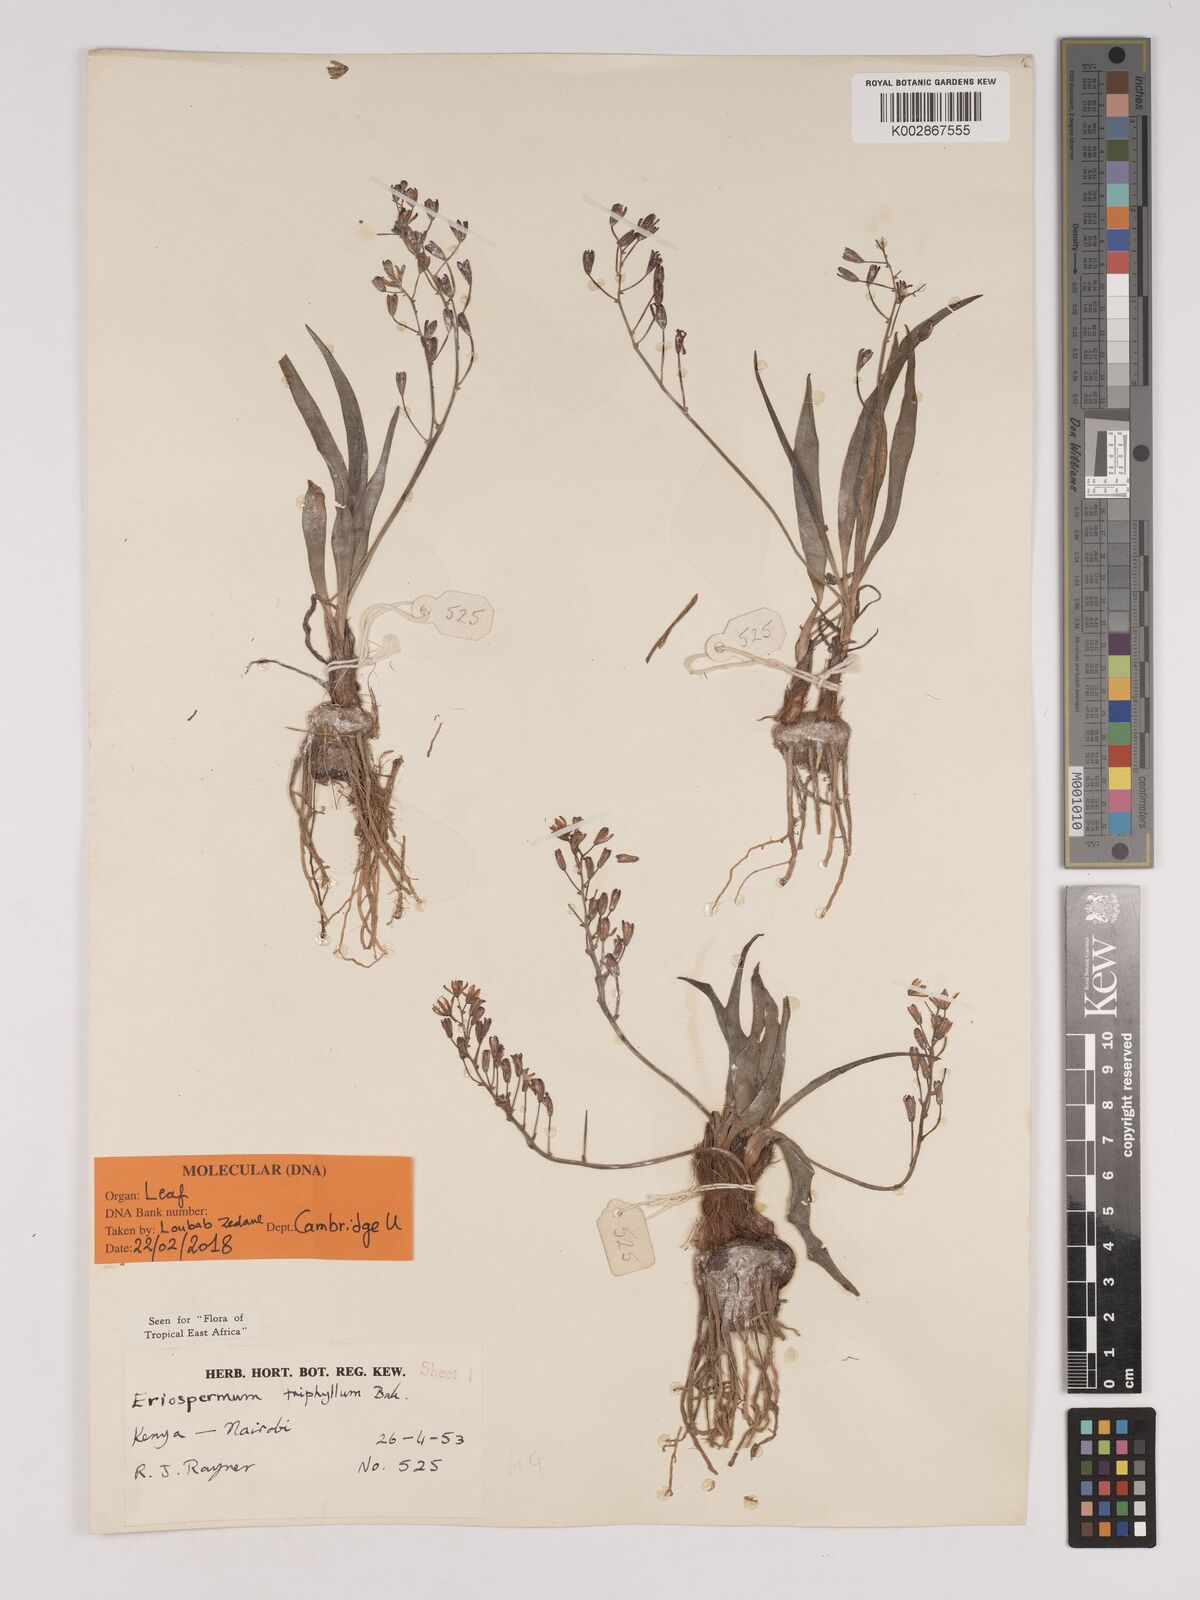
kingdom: Plantae
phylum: Tracheophyta
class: Liliopsida
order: Asparagales
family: Asparagaceae
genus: Eriospermum
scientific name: Eriospermum triphyllum
